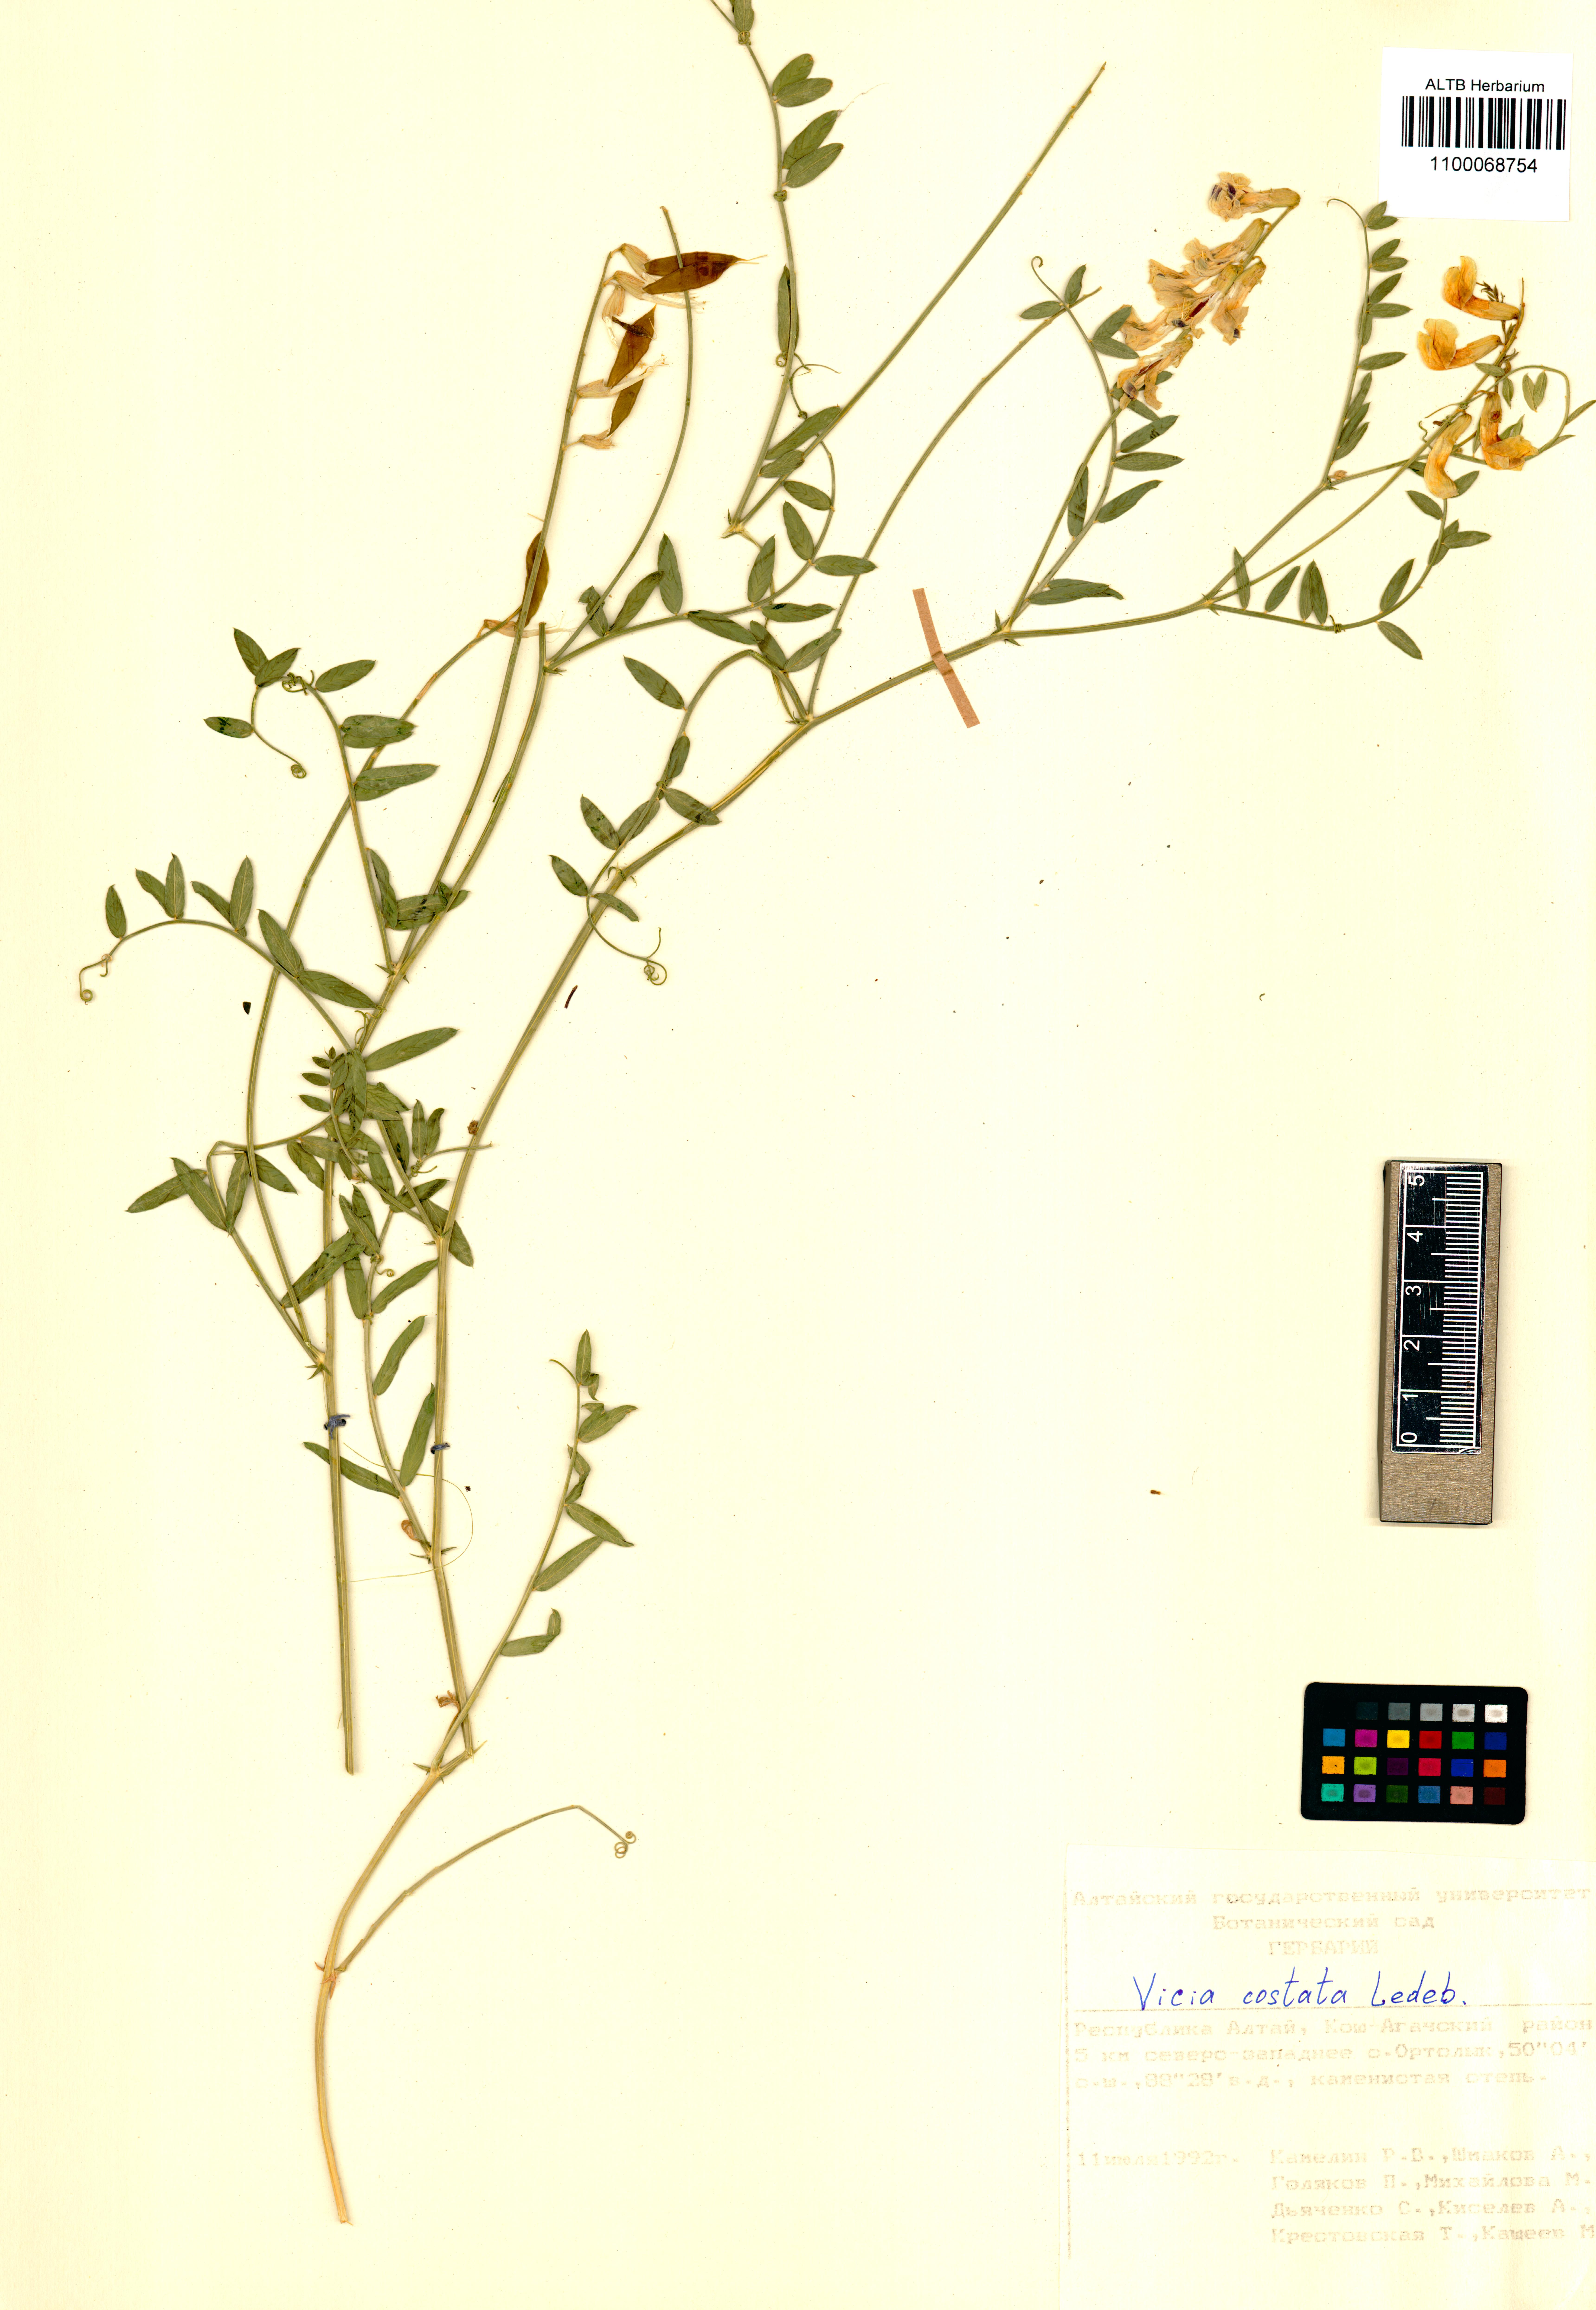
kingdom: Plantae
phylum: Tracheophyta
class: Magnoliopsida
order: Fabales
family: Fabaceae
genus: Vicia
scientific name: Vicia costata
